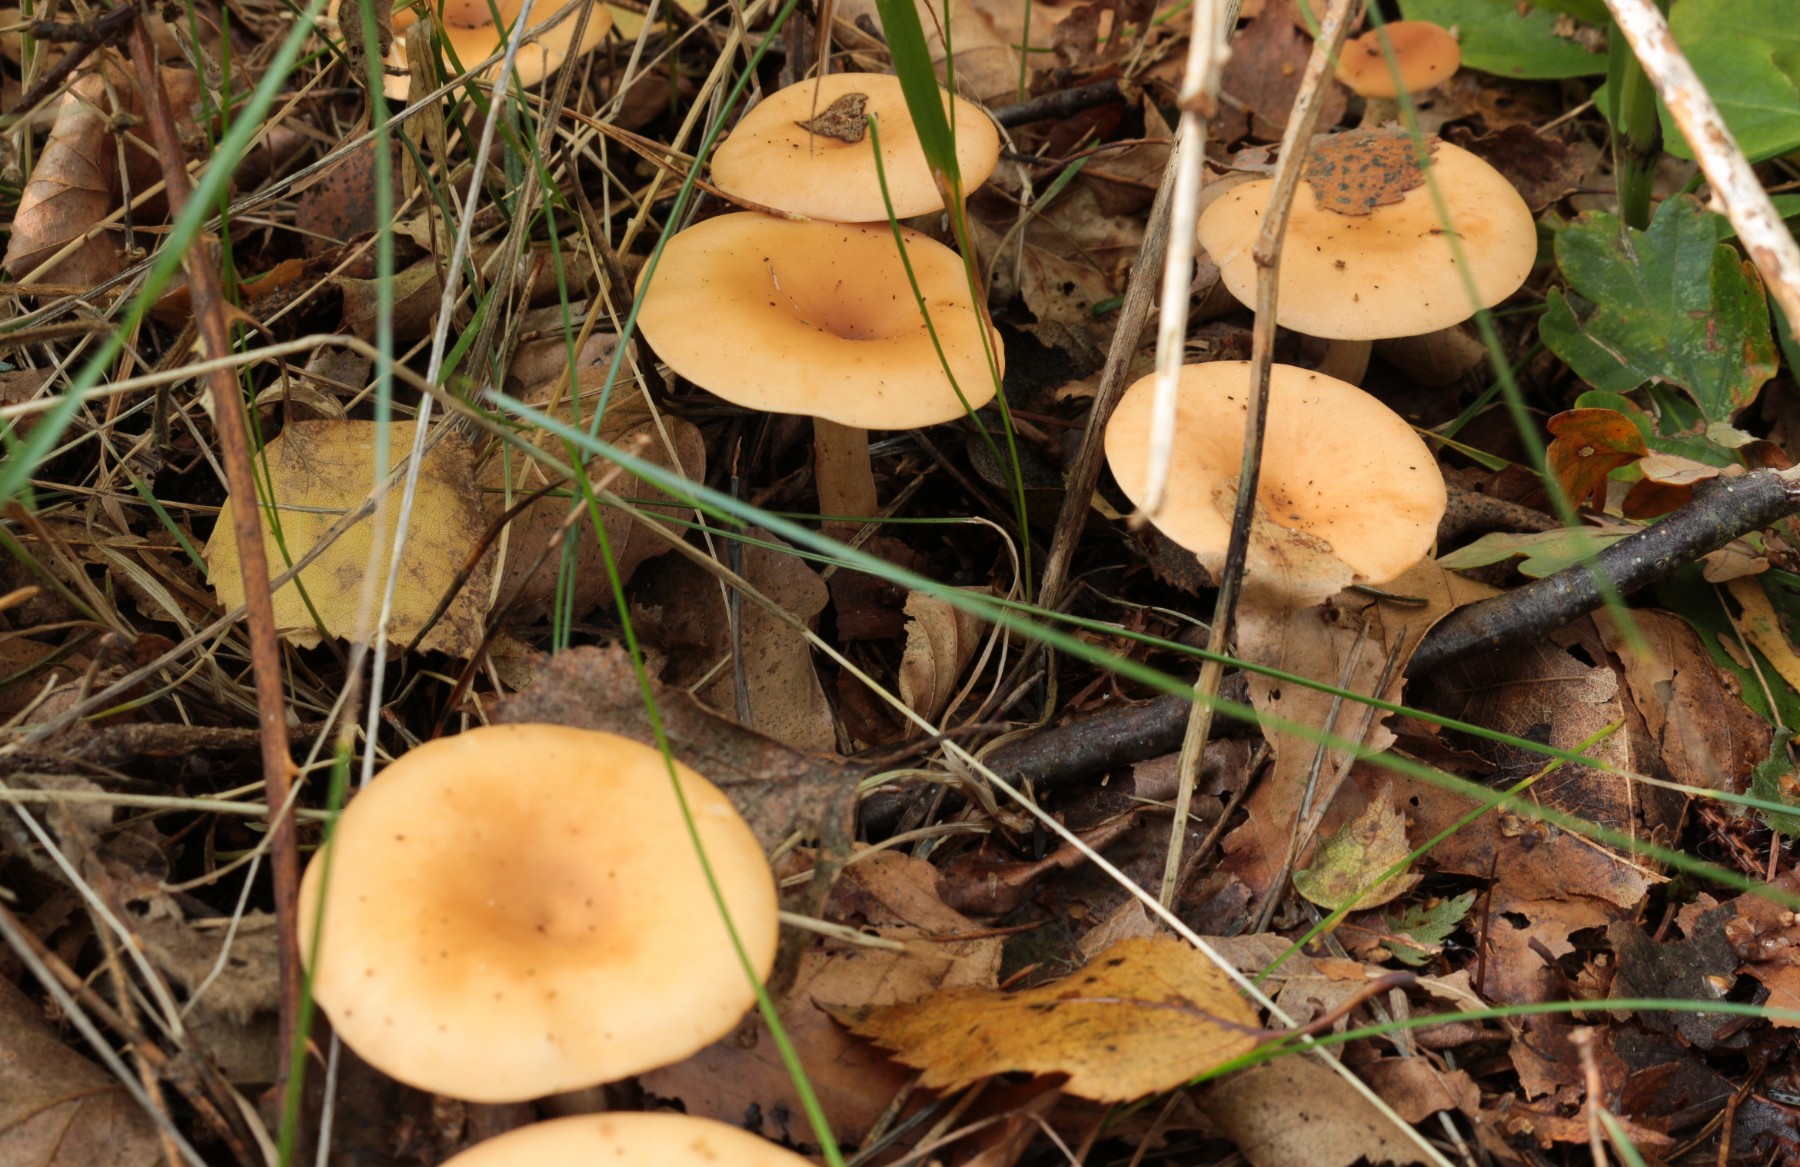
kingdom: Fungi
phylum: Basidiomycota
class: Agaricomycetes
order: Agaricales
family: Tricholomataceae
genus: Paralepista
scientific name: Paralepista flaccida
